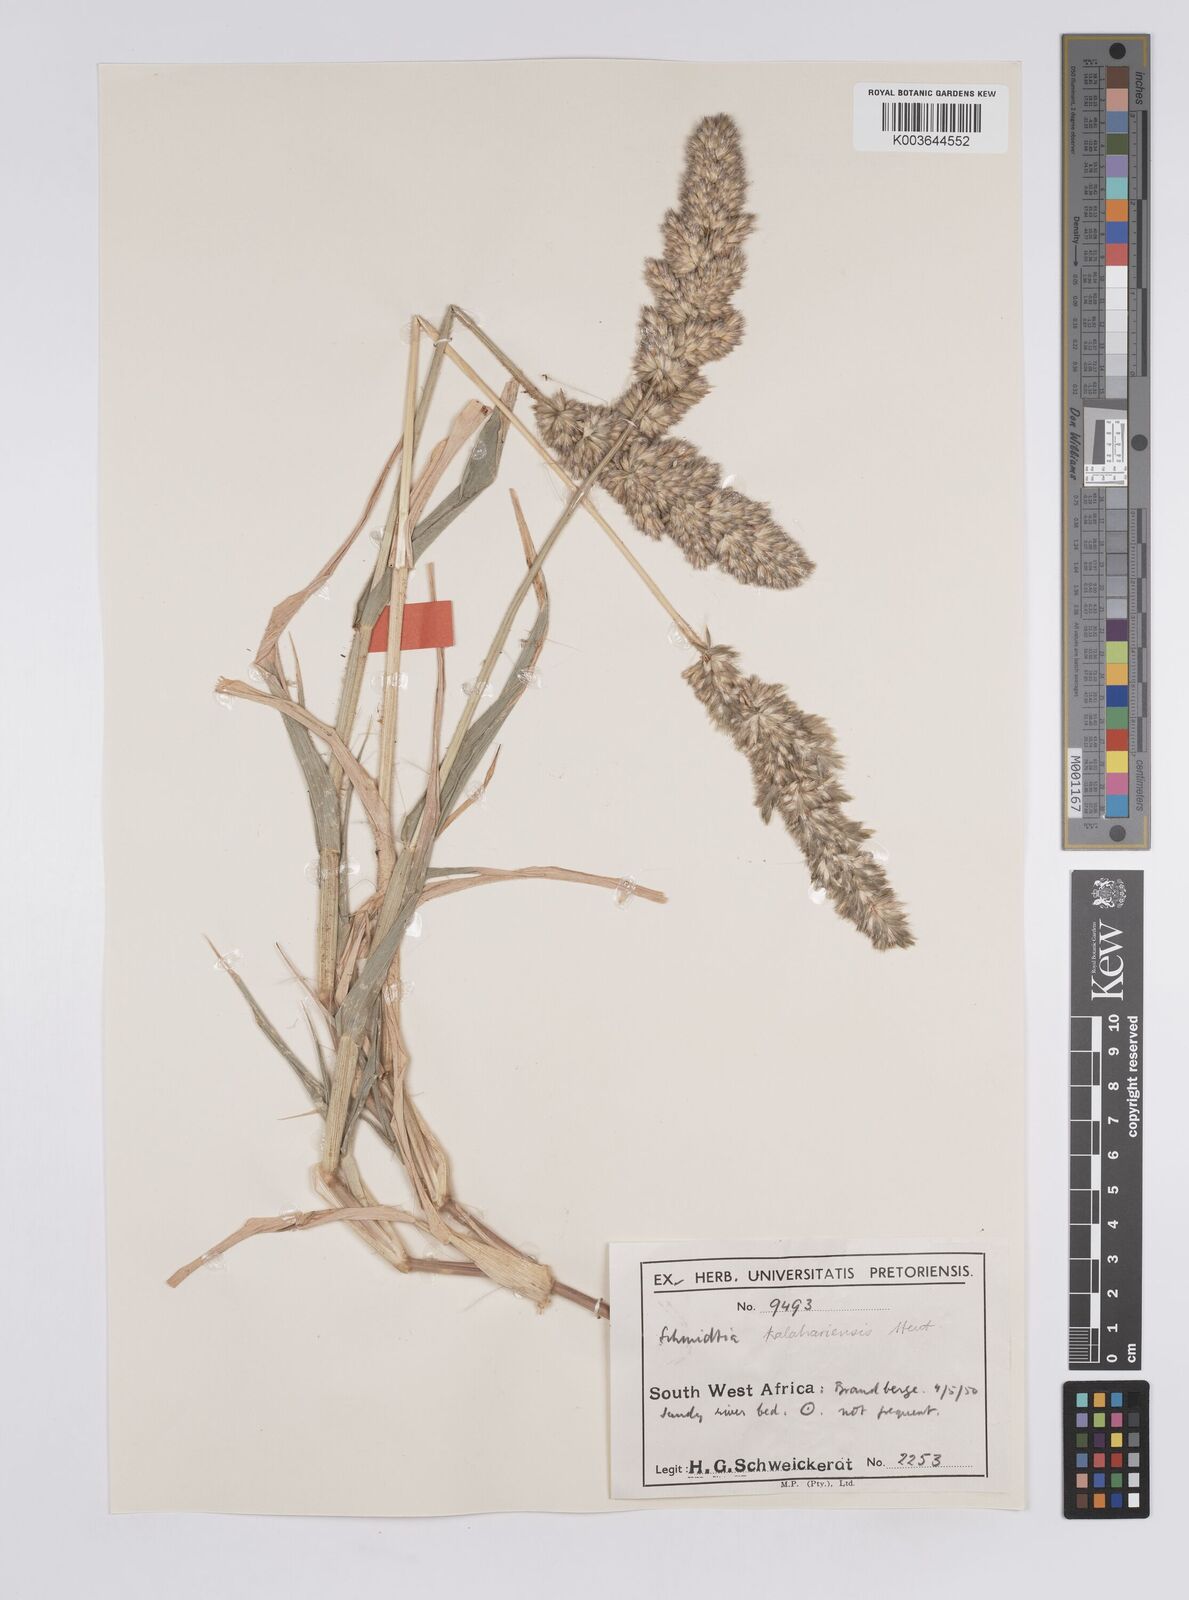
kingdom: Plantae
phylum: Tracheophyta
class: Liliopsida
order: Poales
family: Poaceae
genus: Schmidtia
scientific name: Schmidtia kalahariensis
